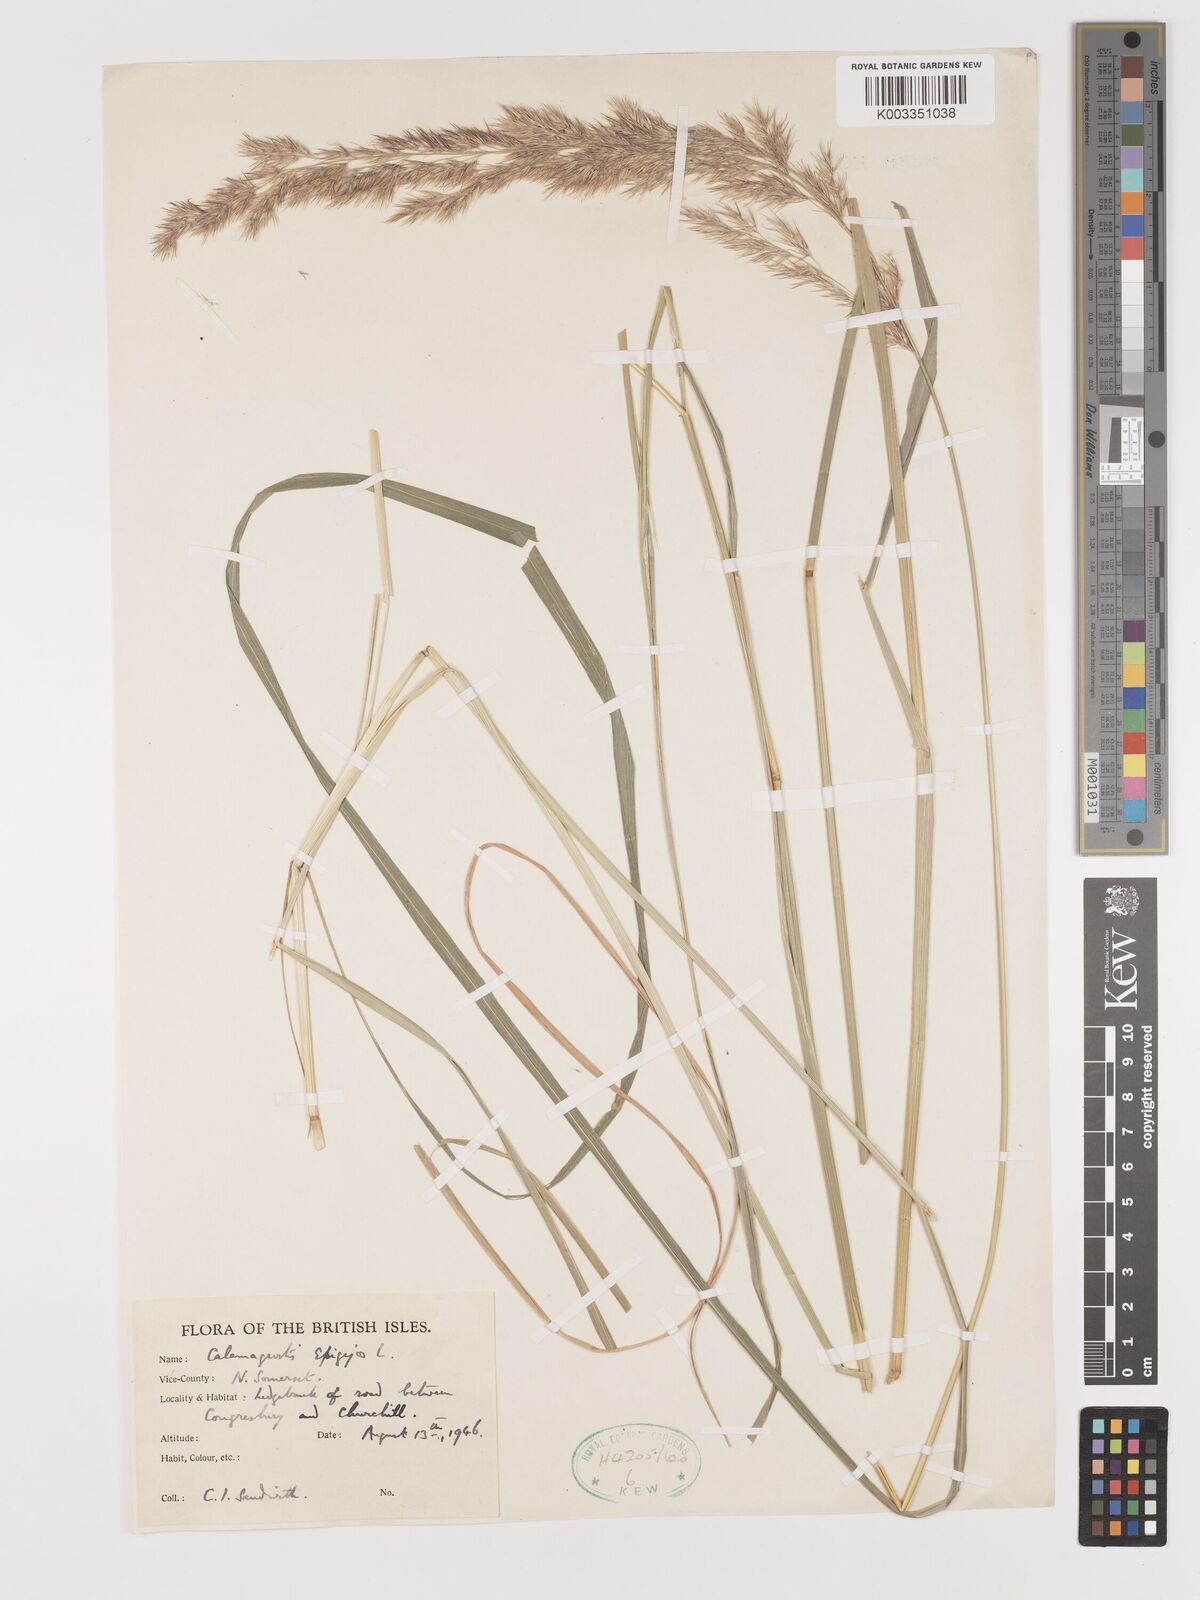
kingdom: Plantae
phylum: Tracheophyta
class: Liliopsida
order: Poales
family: Poaceae
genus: Calamagrostis
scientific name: Calamagrostis epigejos
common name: Wood small-reed
